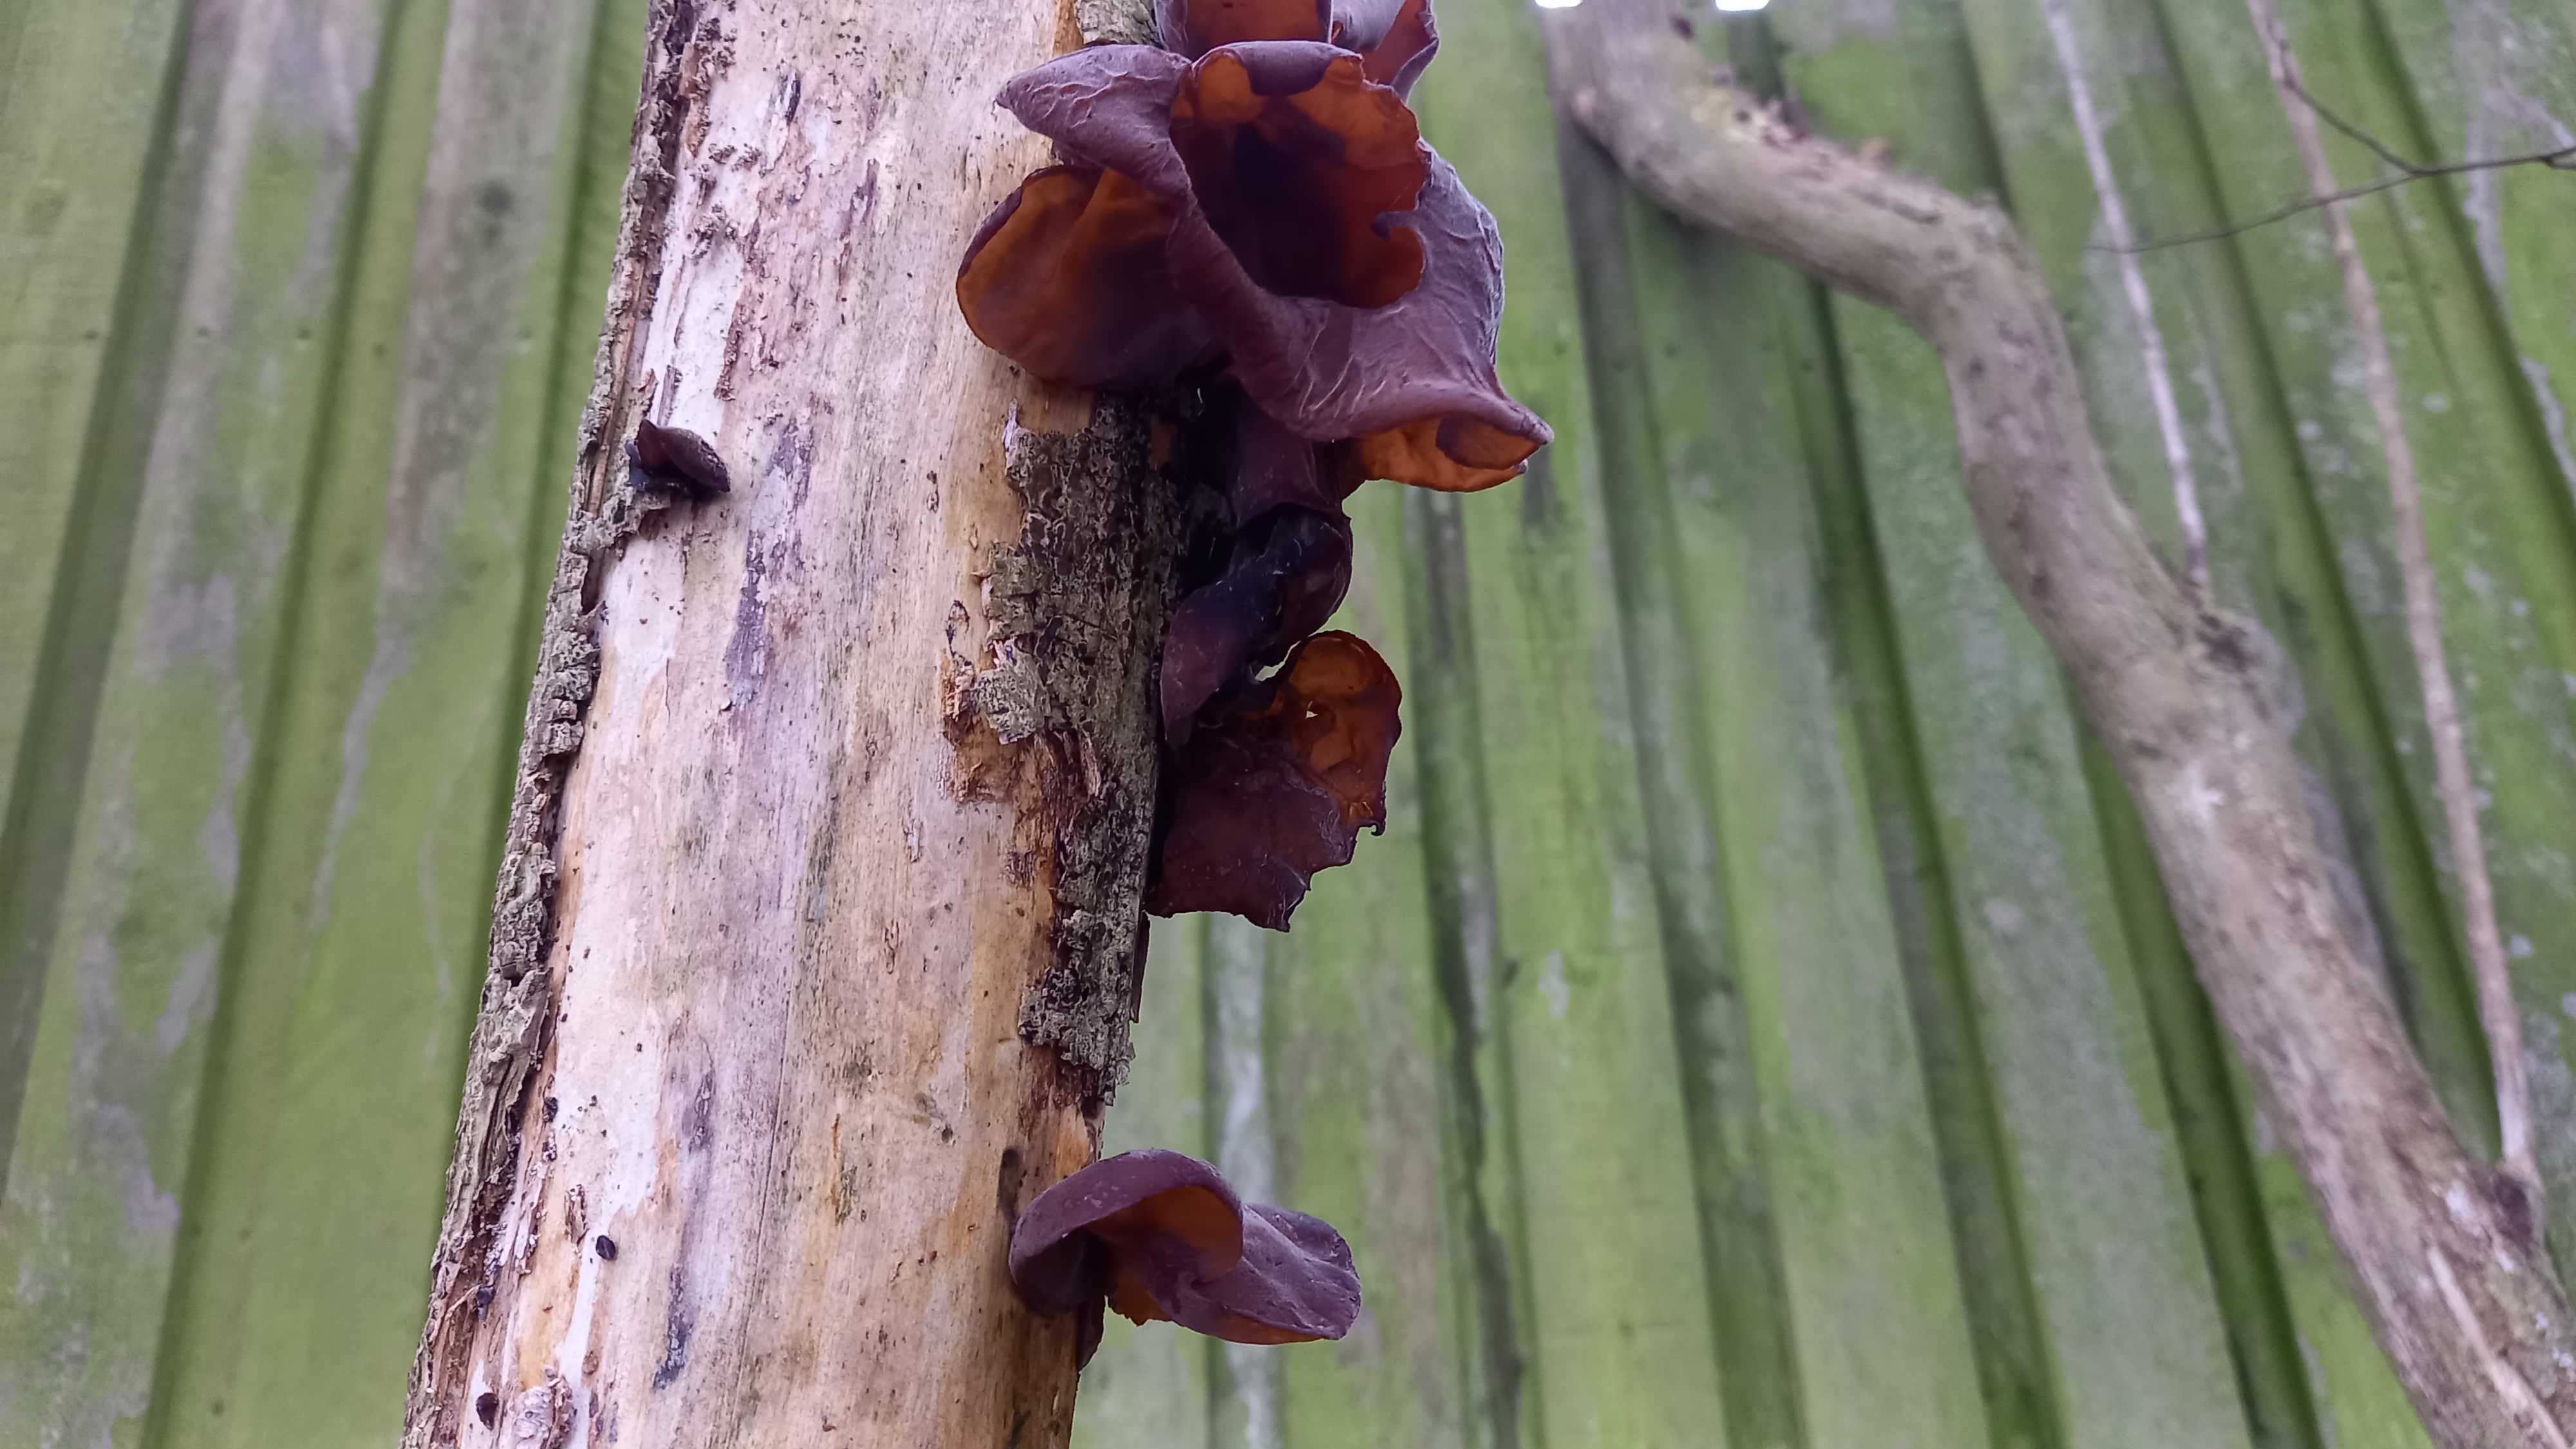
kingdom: Fungi
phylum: Basidiomycota
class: Agaricomycetes
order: Auriculariales
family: Auriculariaceae
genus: Auricularia
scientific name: Auricularia auricula-judae
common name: almindelig judasøre
